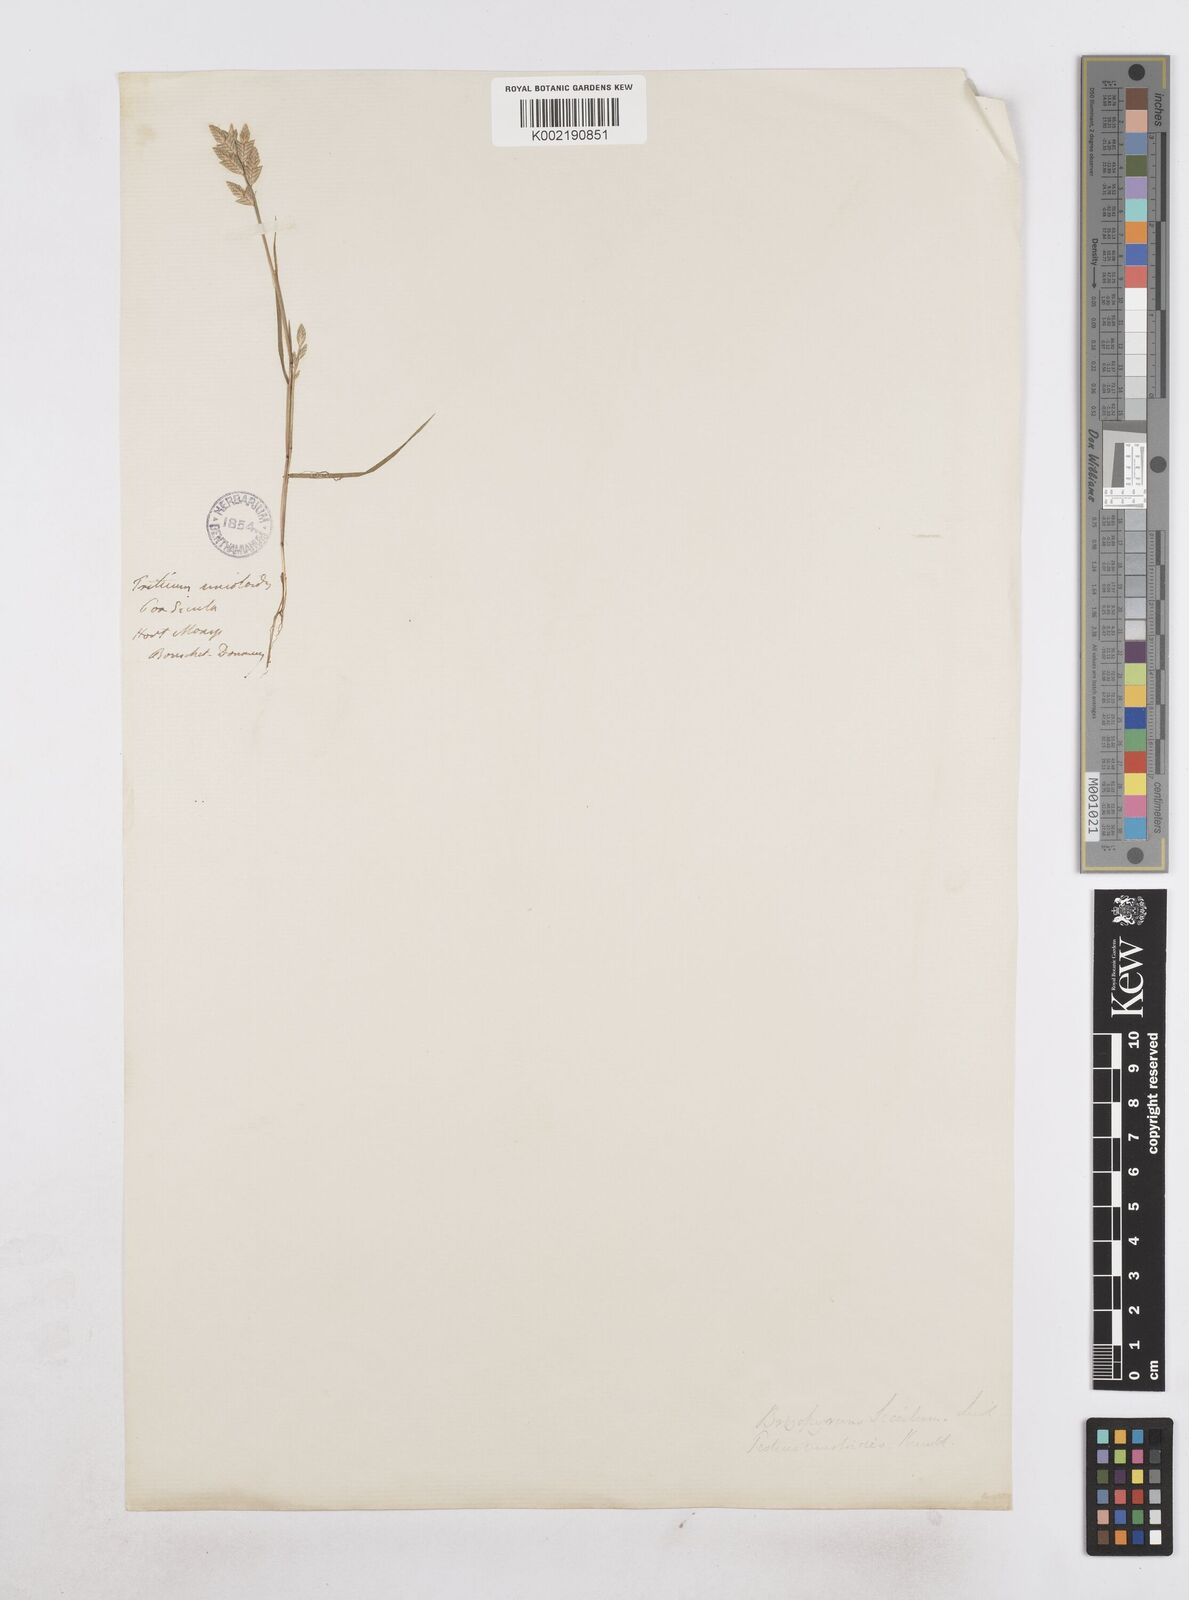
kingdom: Plantae
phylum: Tracheophyta
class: Liliopsida
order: Poales
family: Poaceae
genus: Desmazeria
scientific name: Desmazeria sicula
